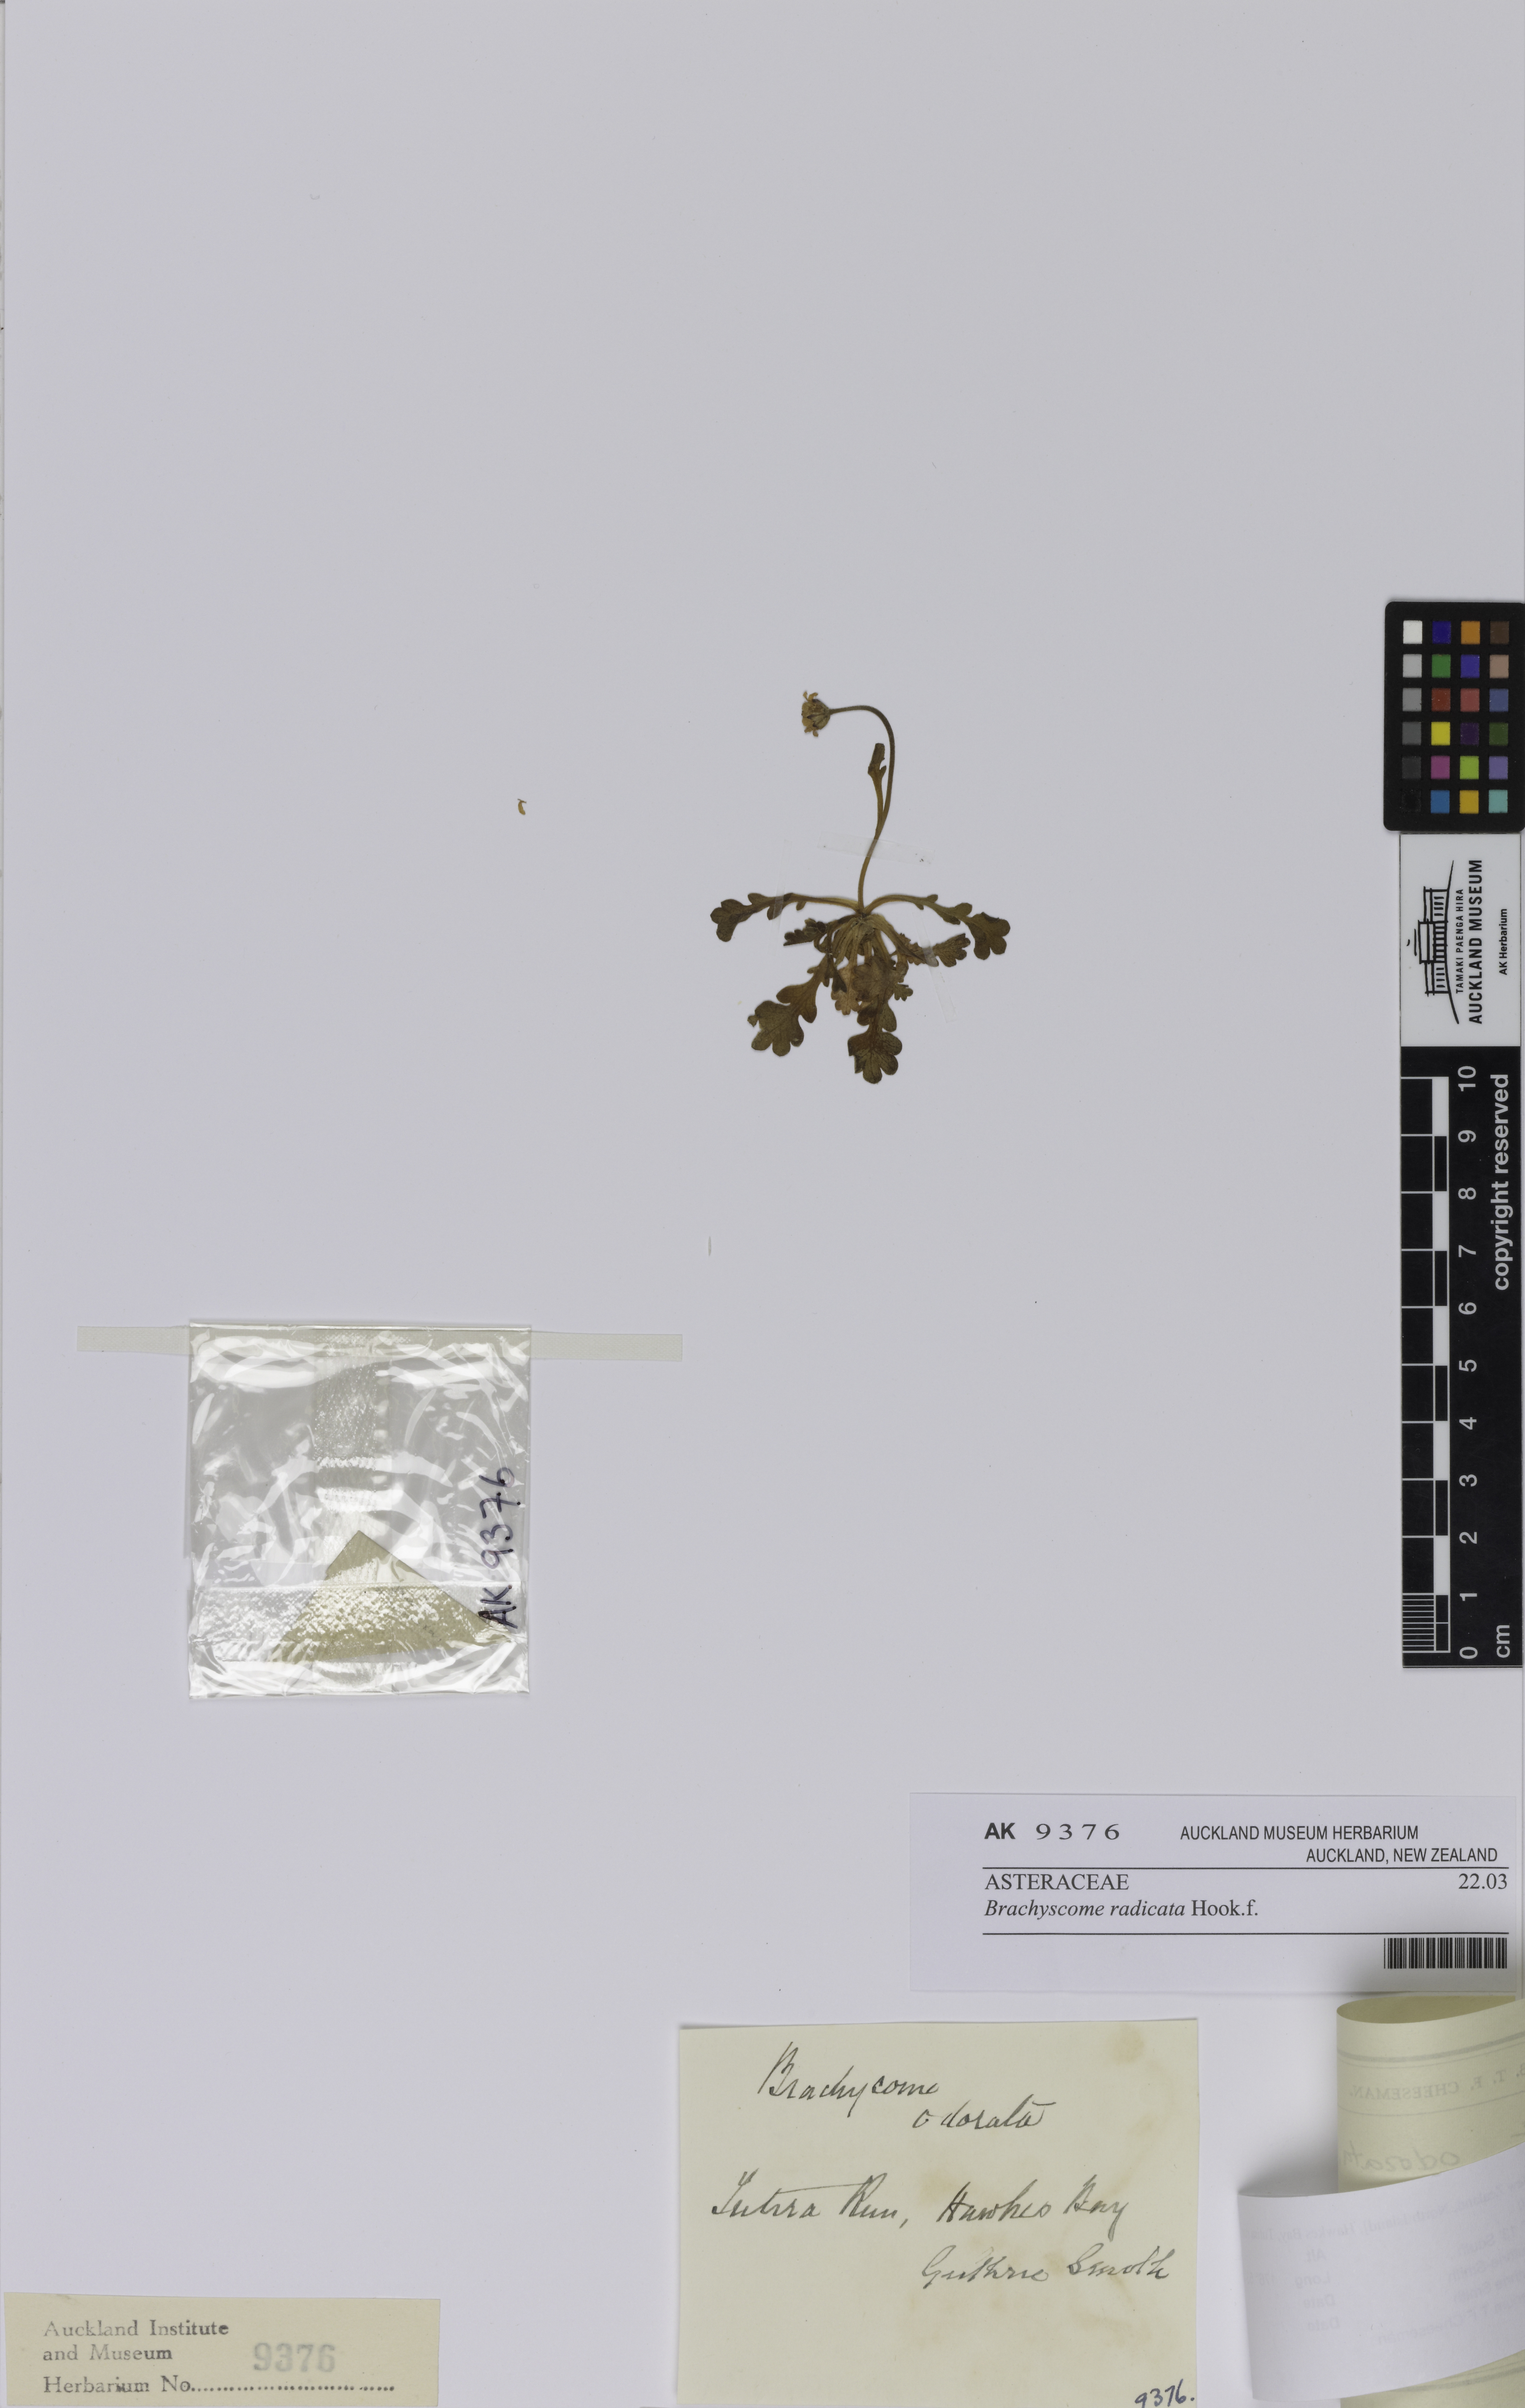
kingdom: Plantae
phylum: Tracheophyta
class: Magnoliopsida
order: Asterales
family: Asteraceae
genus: Brachyscome
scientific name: Brachyscome radicata
